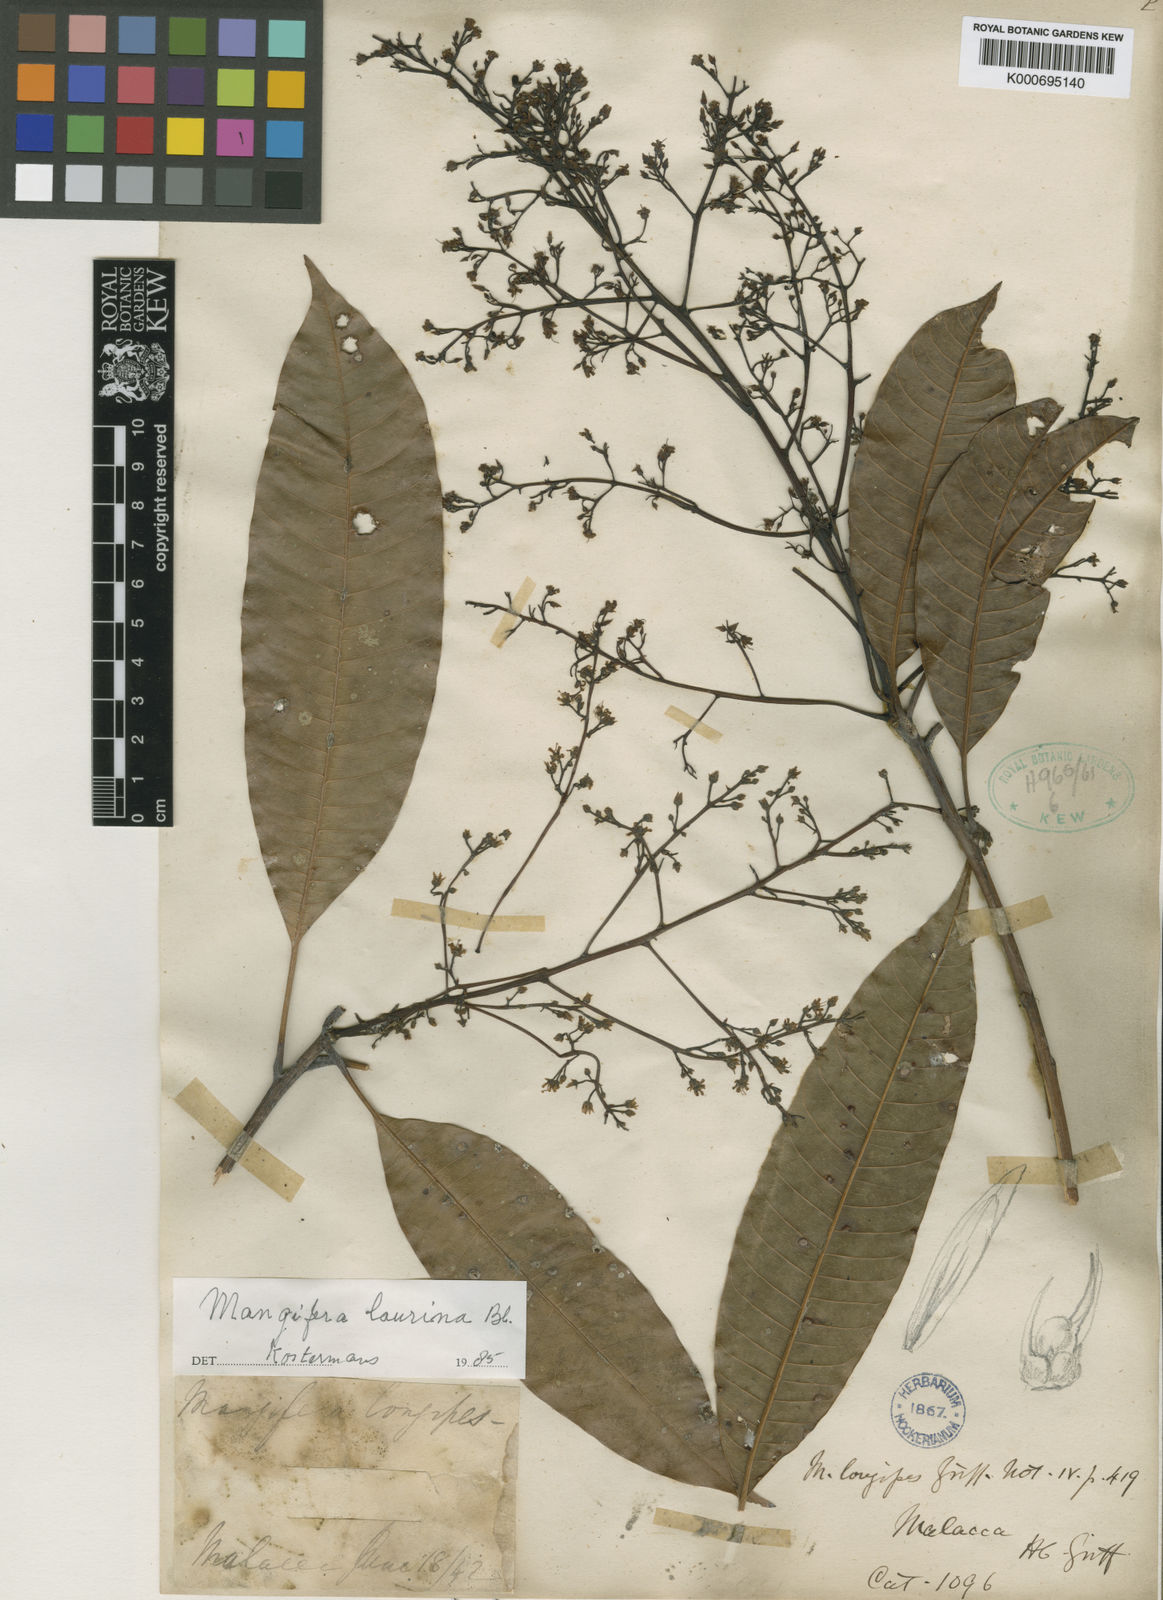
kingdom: Plantae
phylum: Tracheophyta
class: Magnoliopsida
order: Sapindales
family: Anacardiaceae
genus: Mangifera
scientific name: Mangifera laurina
